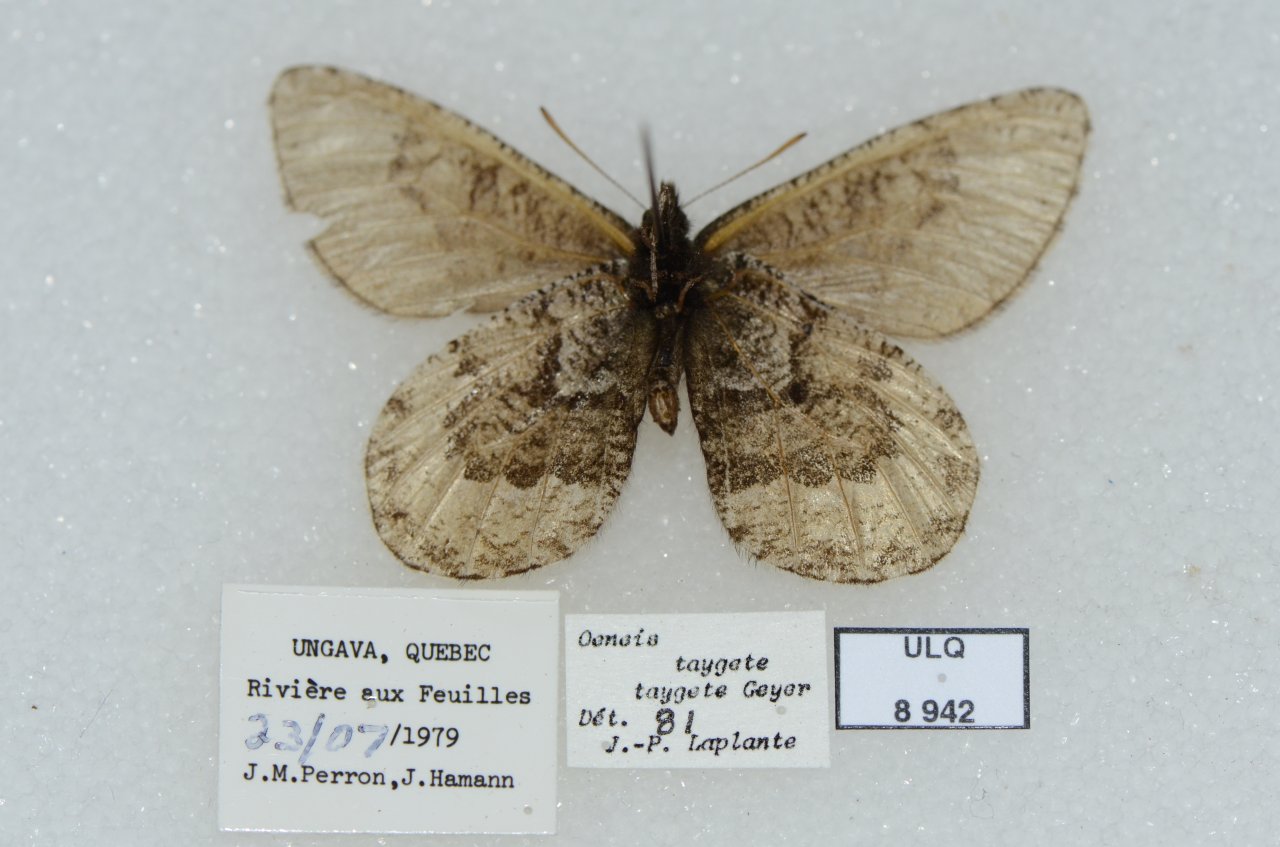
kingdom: Animalia
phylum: Arthropoda
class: Insecta
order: Lepidoptera
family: Nymphalidae
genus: Oeneis
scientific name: Oeneis bore
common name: White-veined Arctic
